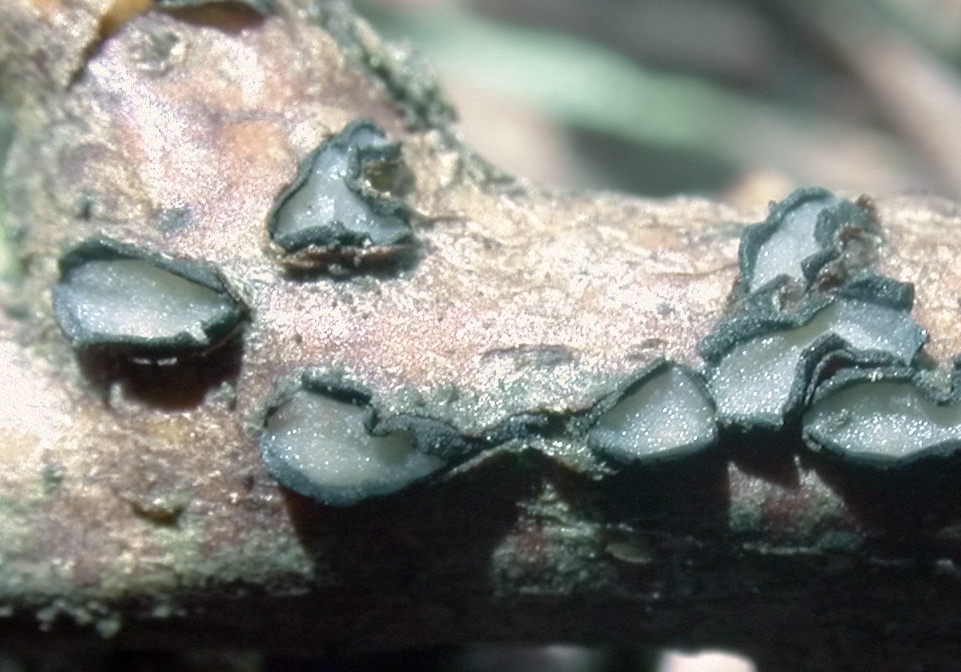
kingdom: Fungi
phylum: Ascomycota
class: Leotiomycetes
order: Rhytismatales
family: Rhytismataceae
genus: Sporomega
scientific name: Sporomega degenerans
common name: bølle-sprækkeskive
